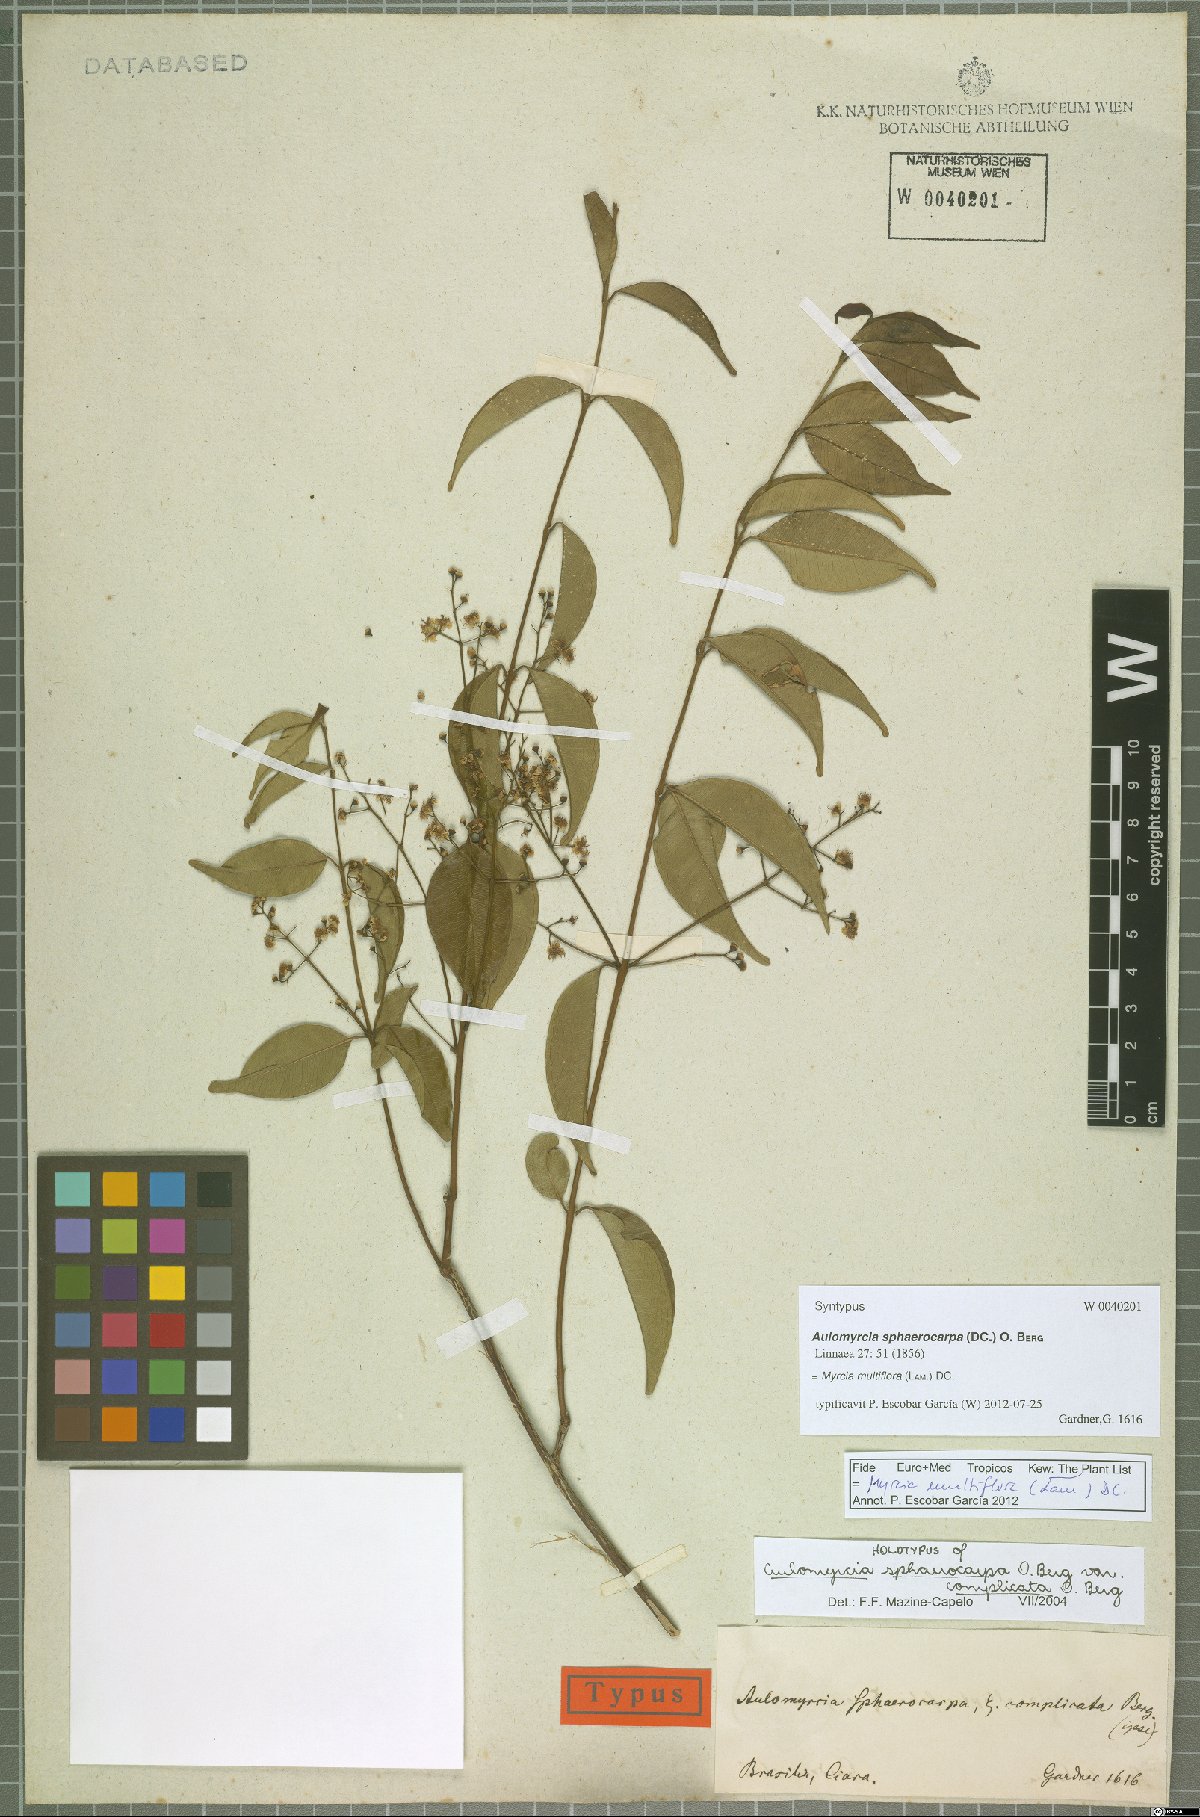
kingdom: Plantae
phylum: Tracheophyta
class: Magnoliopsida
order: Myrtales
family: Myrtaceae
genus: Myrcia
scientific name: Myrcia multiflora
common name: Pedra hume
